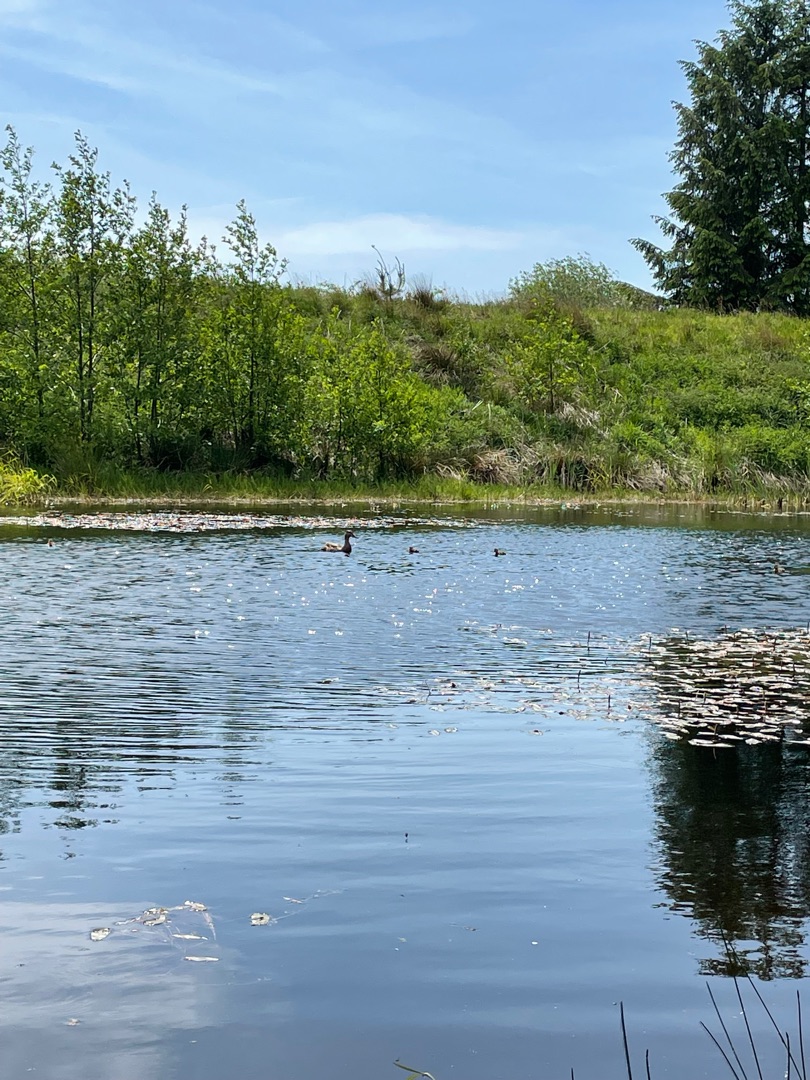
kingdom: Animalia
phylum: Chordata
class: Aves
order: Anseriformes
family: Anatidae
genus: Anas
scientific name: Anas platyrhynchos
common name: Gråand
